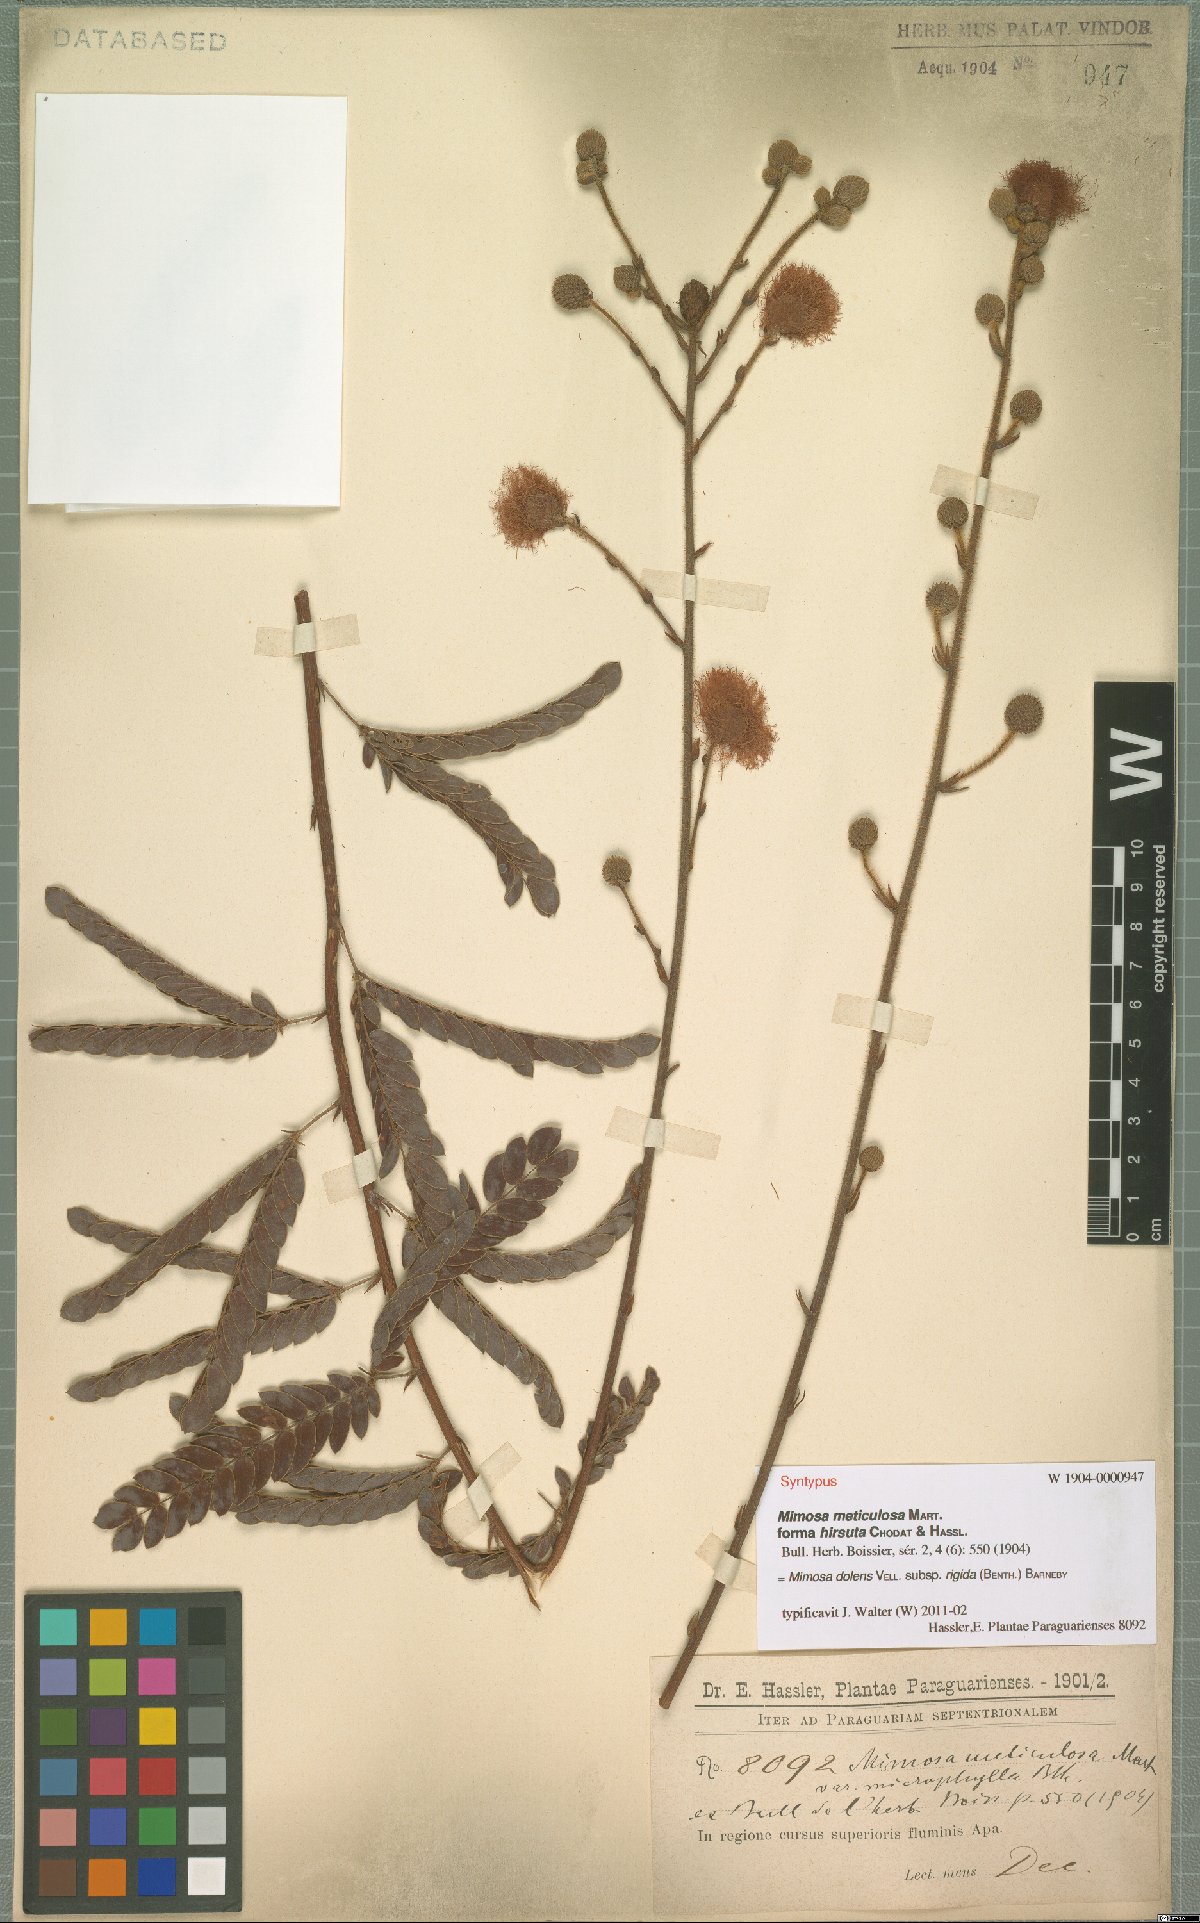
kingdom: Plantae
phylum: Tracheophyta
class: Magnoliopsida
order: Fabales
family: Fabaceae
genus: Mimosa
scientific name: Mimosa dolens
